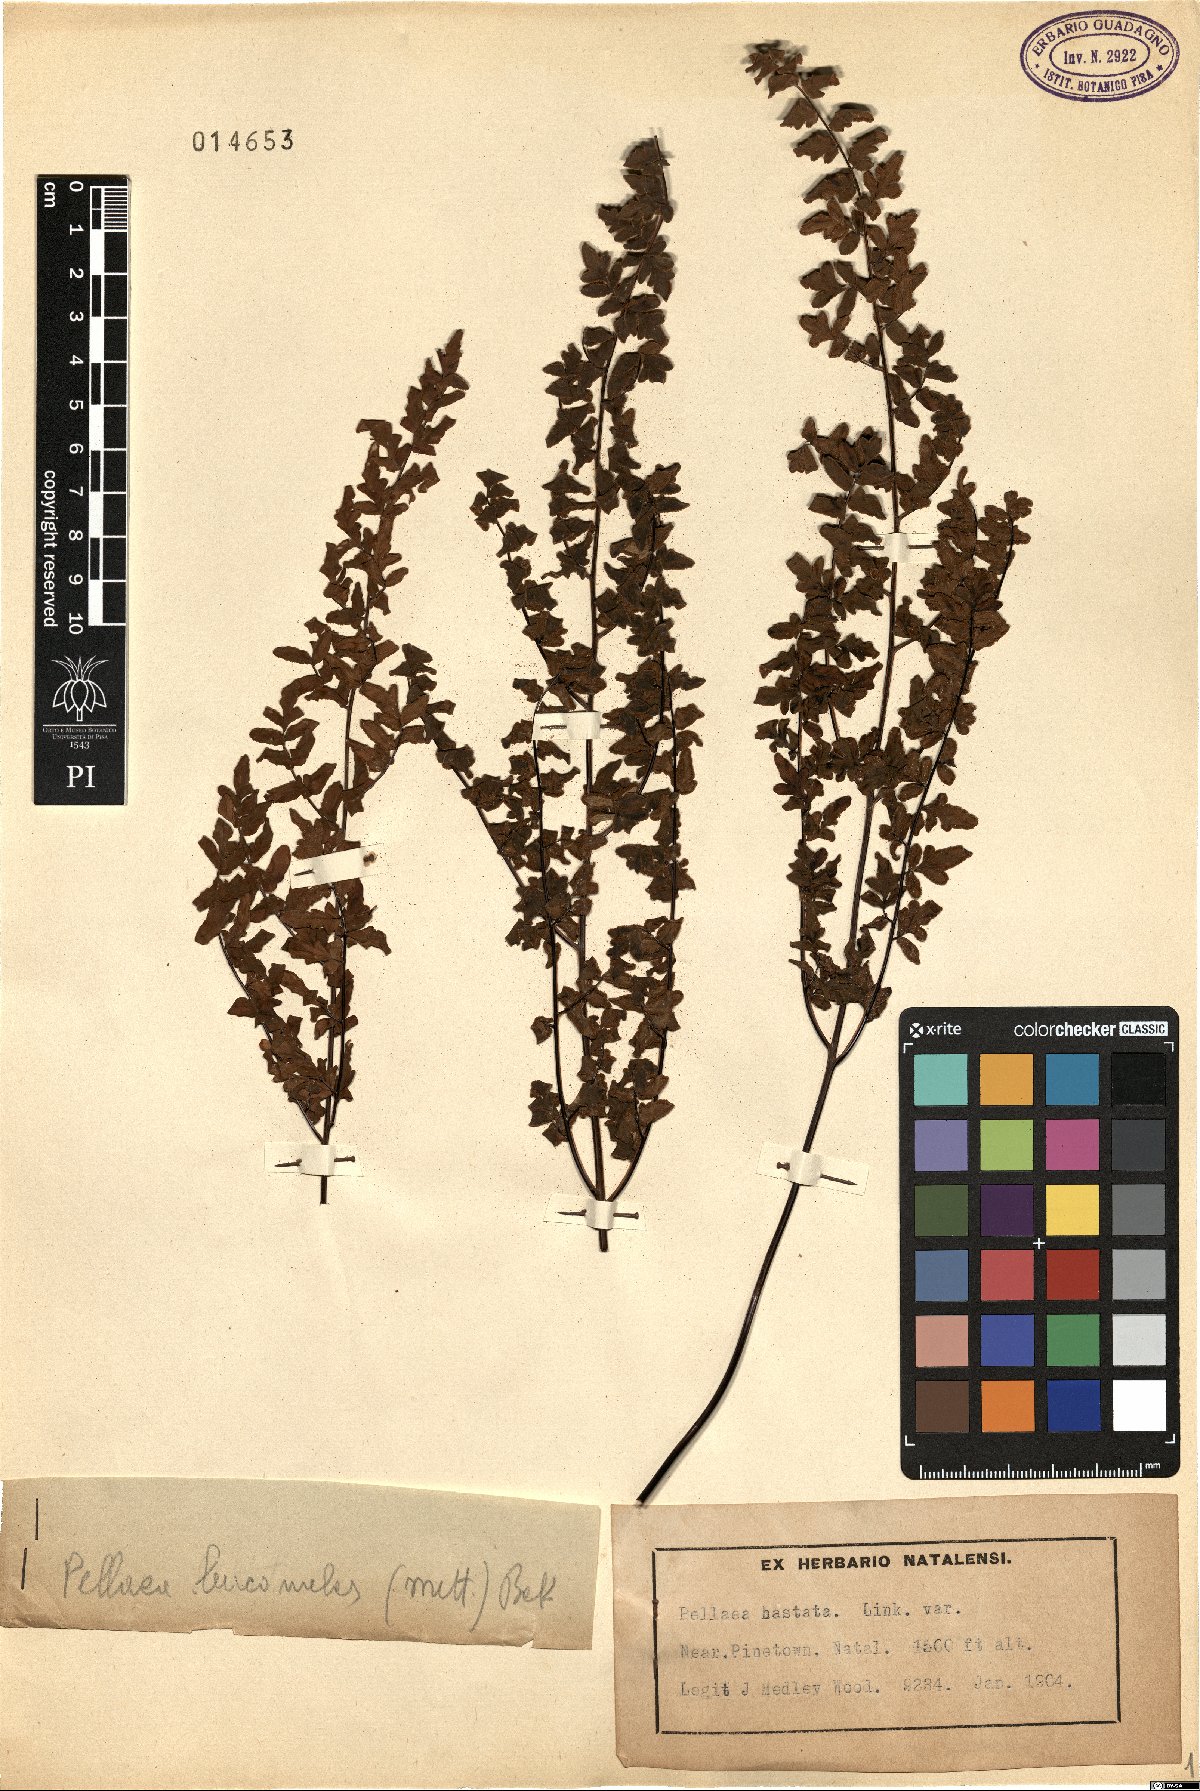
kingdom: Plantae
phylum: Tracheophyta
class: Polypodiopsida
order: Polypodiales
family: Pteridaceae
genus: Pellaea
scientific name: Pellaea calomelanos
